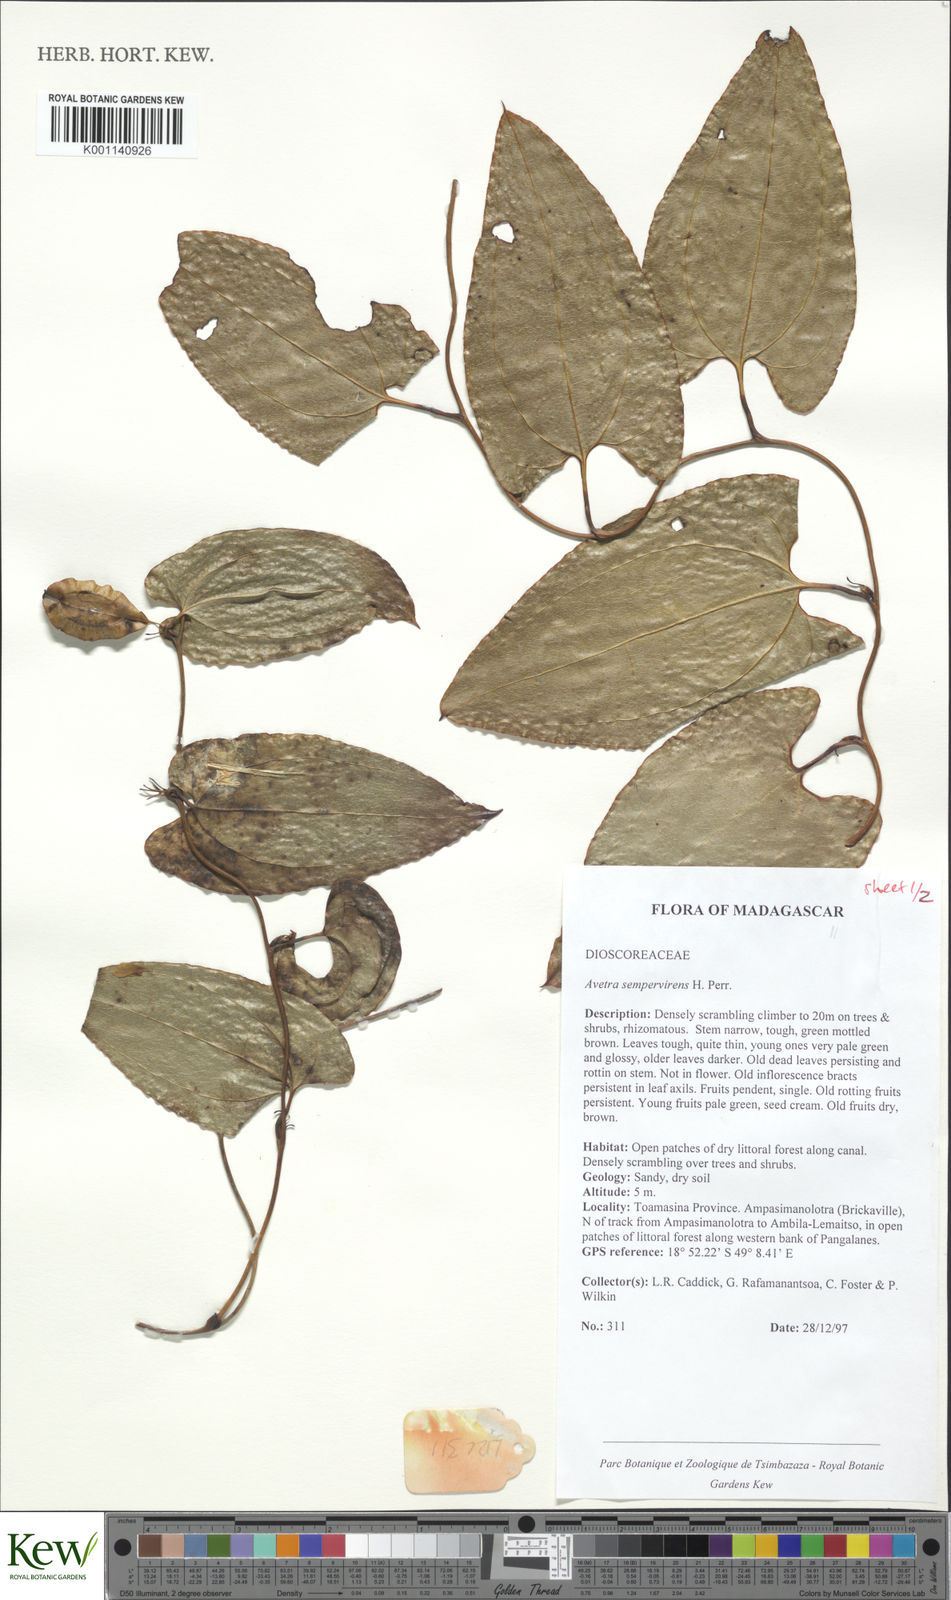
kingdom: Plantae
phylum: Tracheophyta
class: Liliopsida
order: Dioscoreales
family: Dioscoreaceae
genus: Trichopus
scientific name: Trichopus sempervirens
